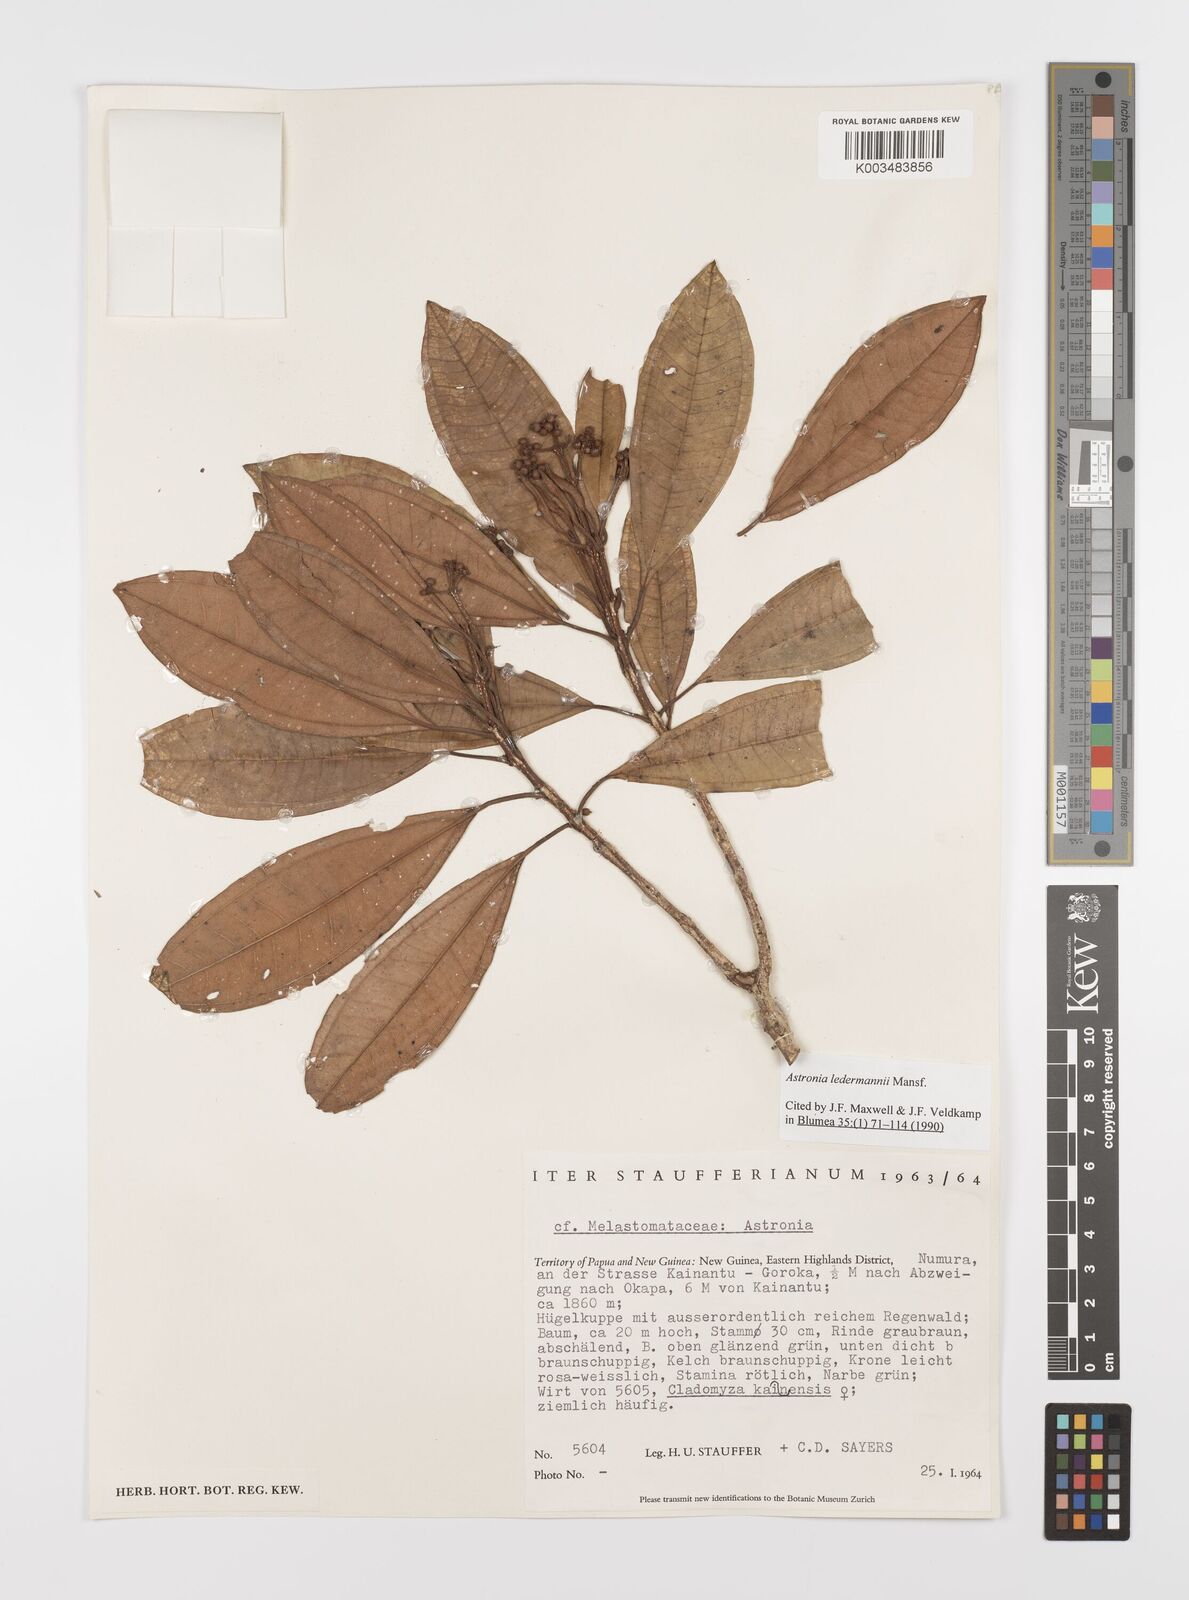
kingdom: Plantae
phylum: Tracheophyta
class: Magnoliopsida
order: Myrtales
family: Melastomataceae
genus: Astronia
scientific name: Astronia ledermannii
